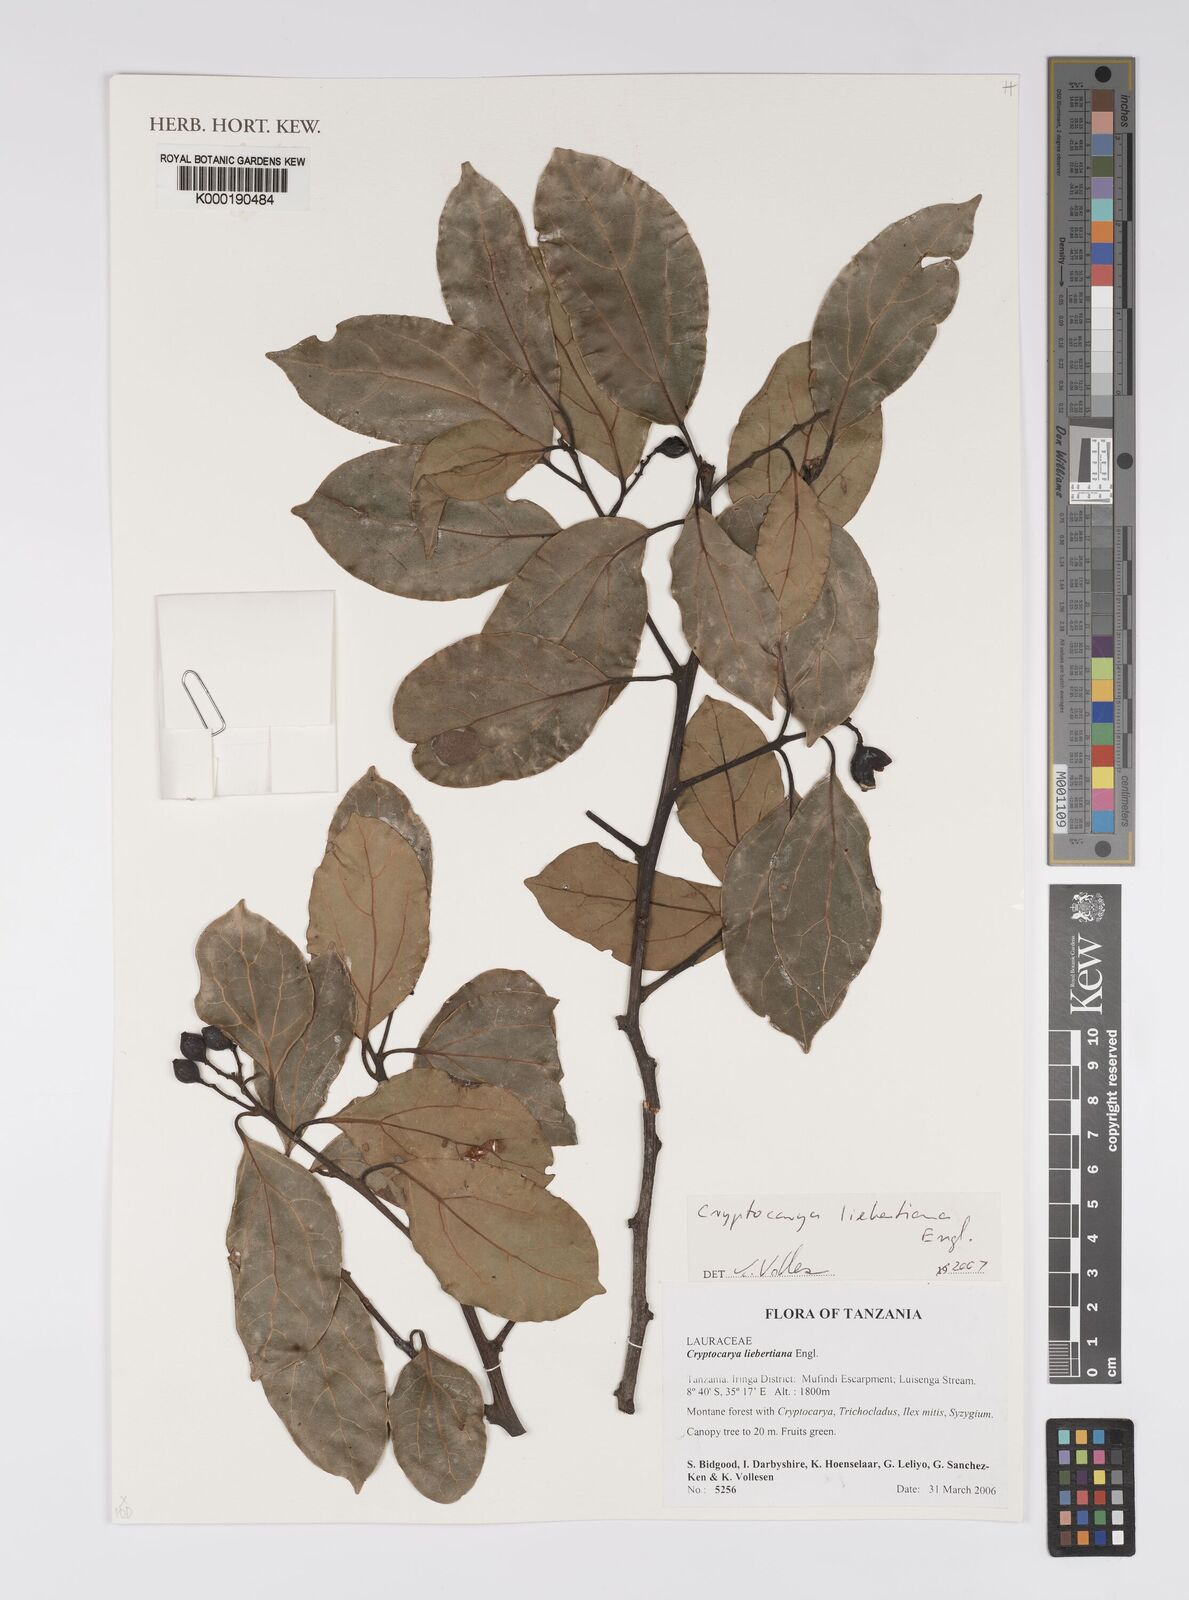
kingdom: Plantae
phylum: Tracheophyta
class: Magnoliopsida
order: Laurales
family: Lauraceae
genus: Cryptocarya
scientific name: Cryptocarya liebertiana
